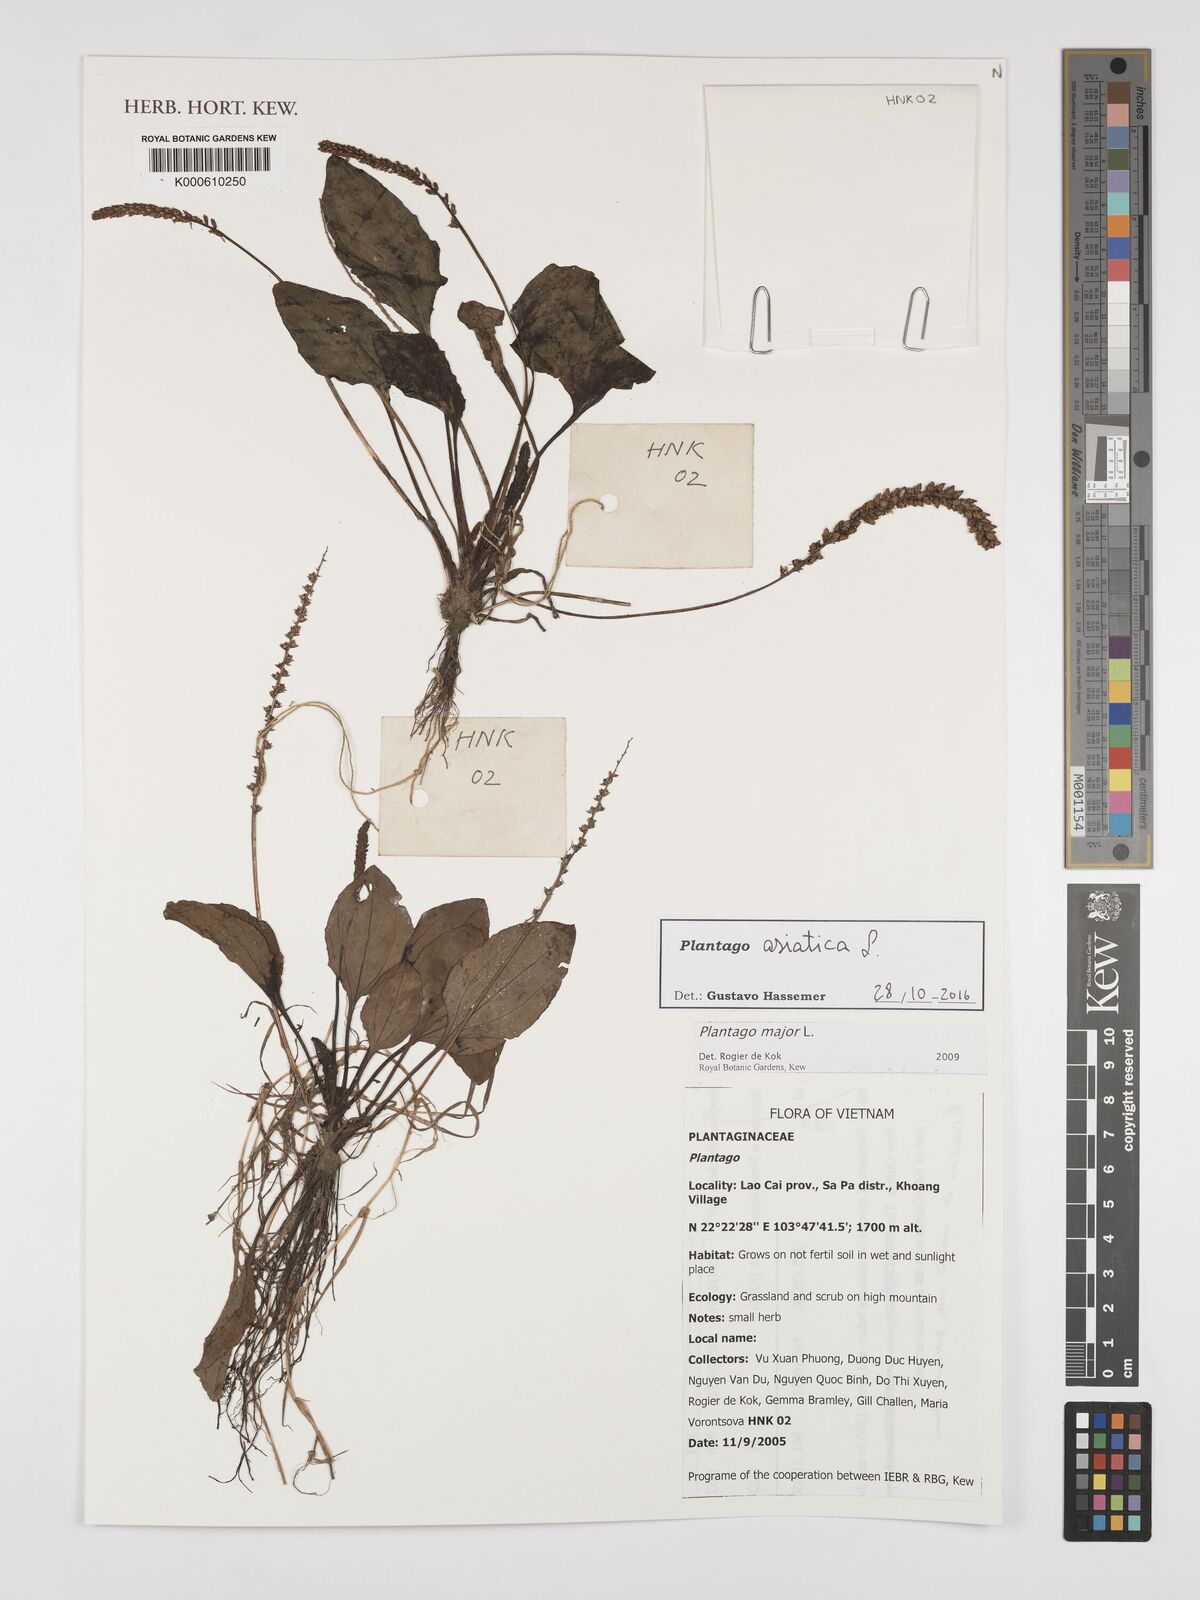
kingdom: Plantae
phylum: Tracheophyta
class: Magnoliopsida
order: Lamiales
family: Plantaginaceae
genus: Plantago
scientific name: Plantago asiatica
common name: Psyllium
